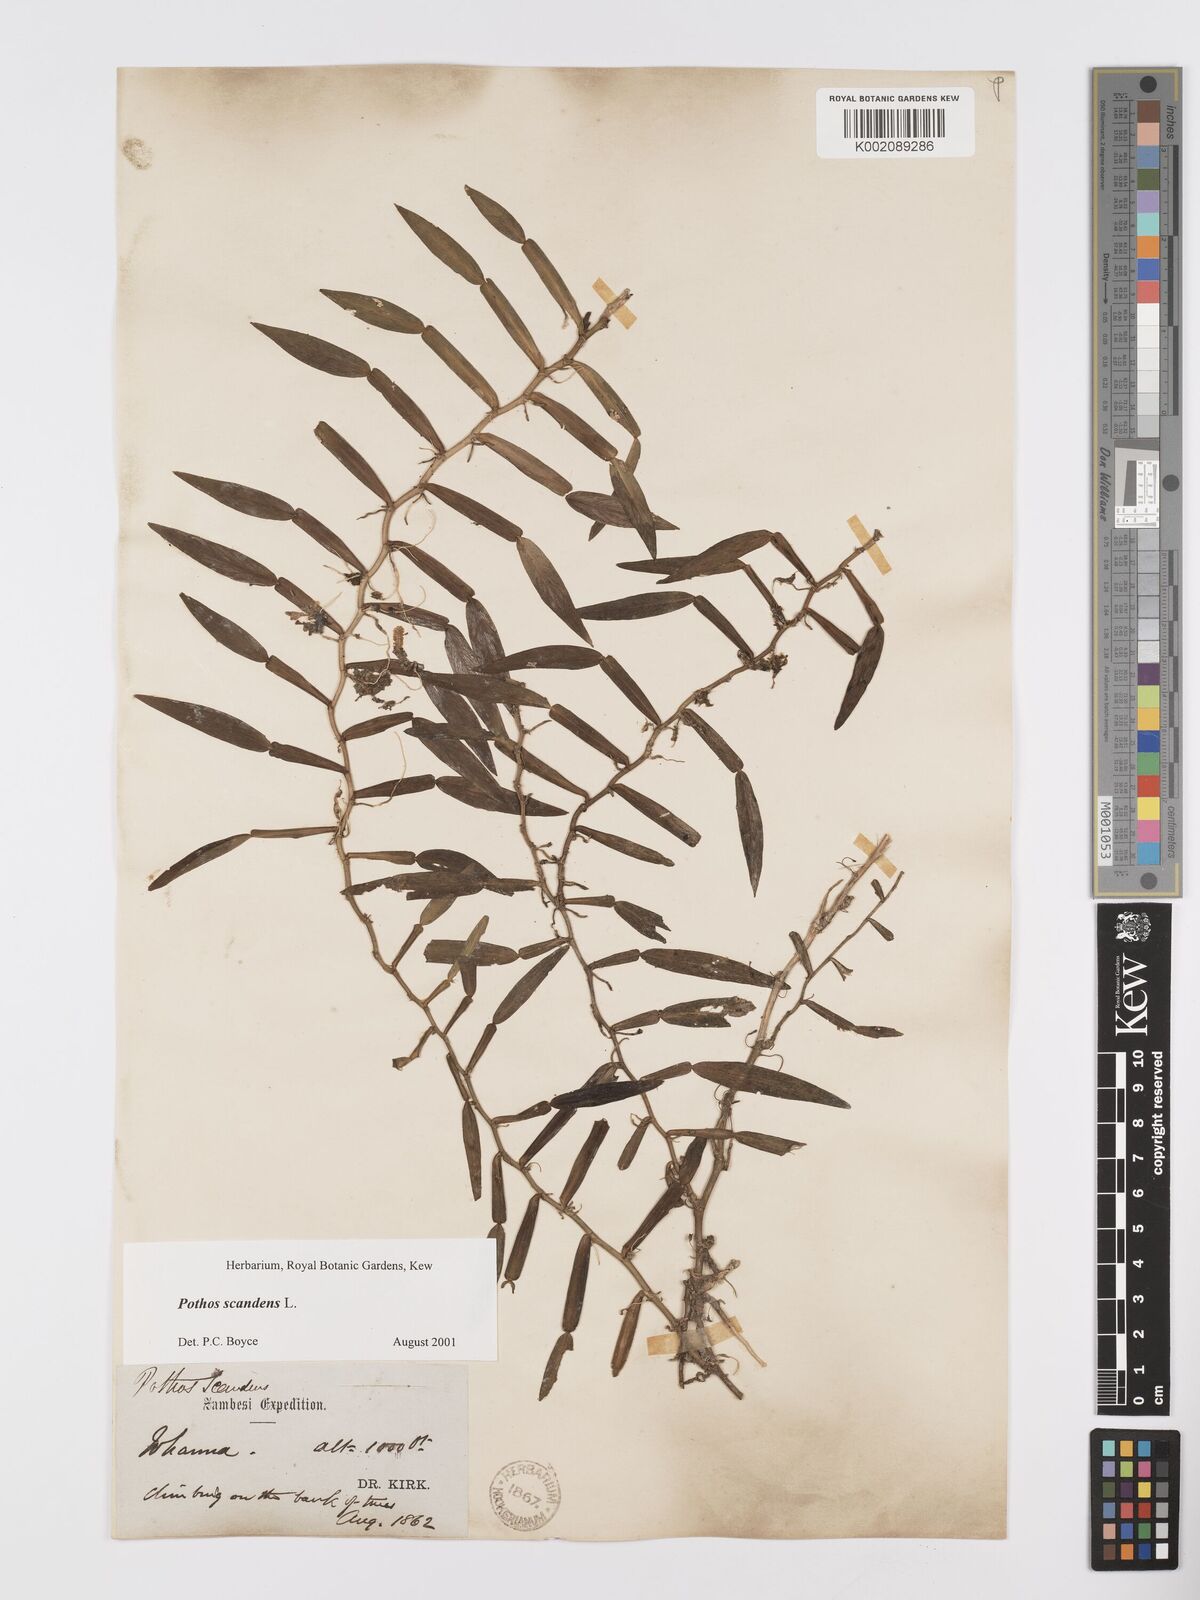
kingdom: Plantae
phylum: Tracheophyta
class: Liliopsida
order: Alismatales
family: Araceae
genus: Pothos
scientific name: Pothos scandens
